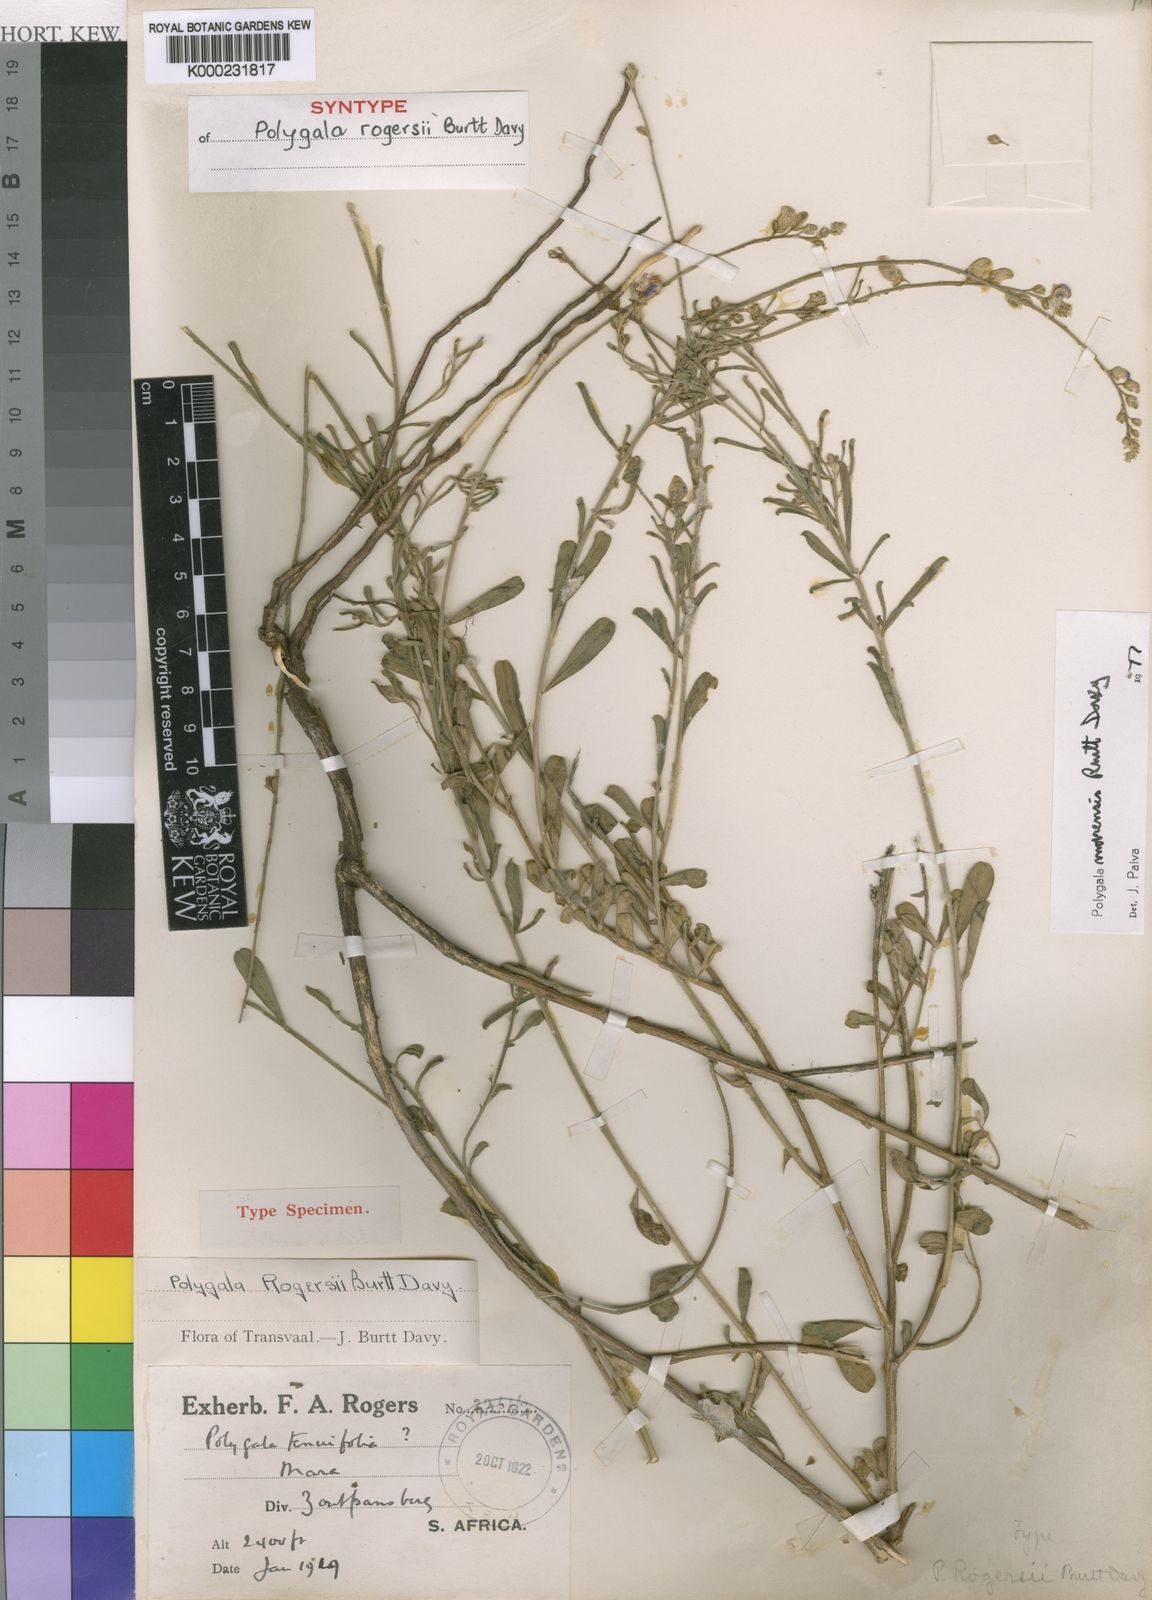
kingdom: Plantae
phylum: Tracheophyta
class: Magnoliopsida
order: Fabales
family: Polygalaceae
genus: Polygala
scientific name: Polygala marensis
